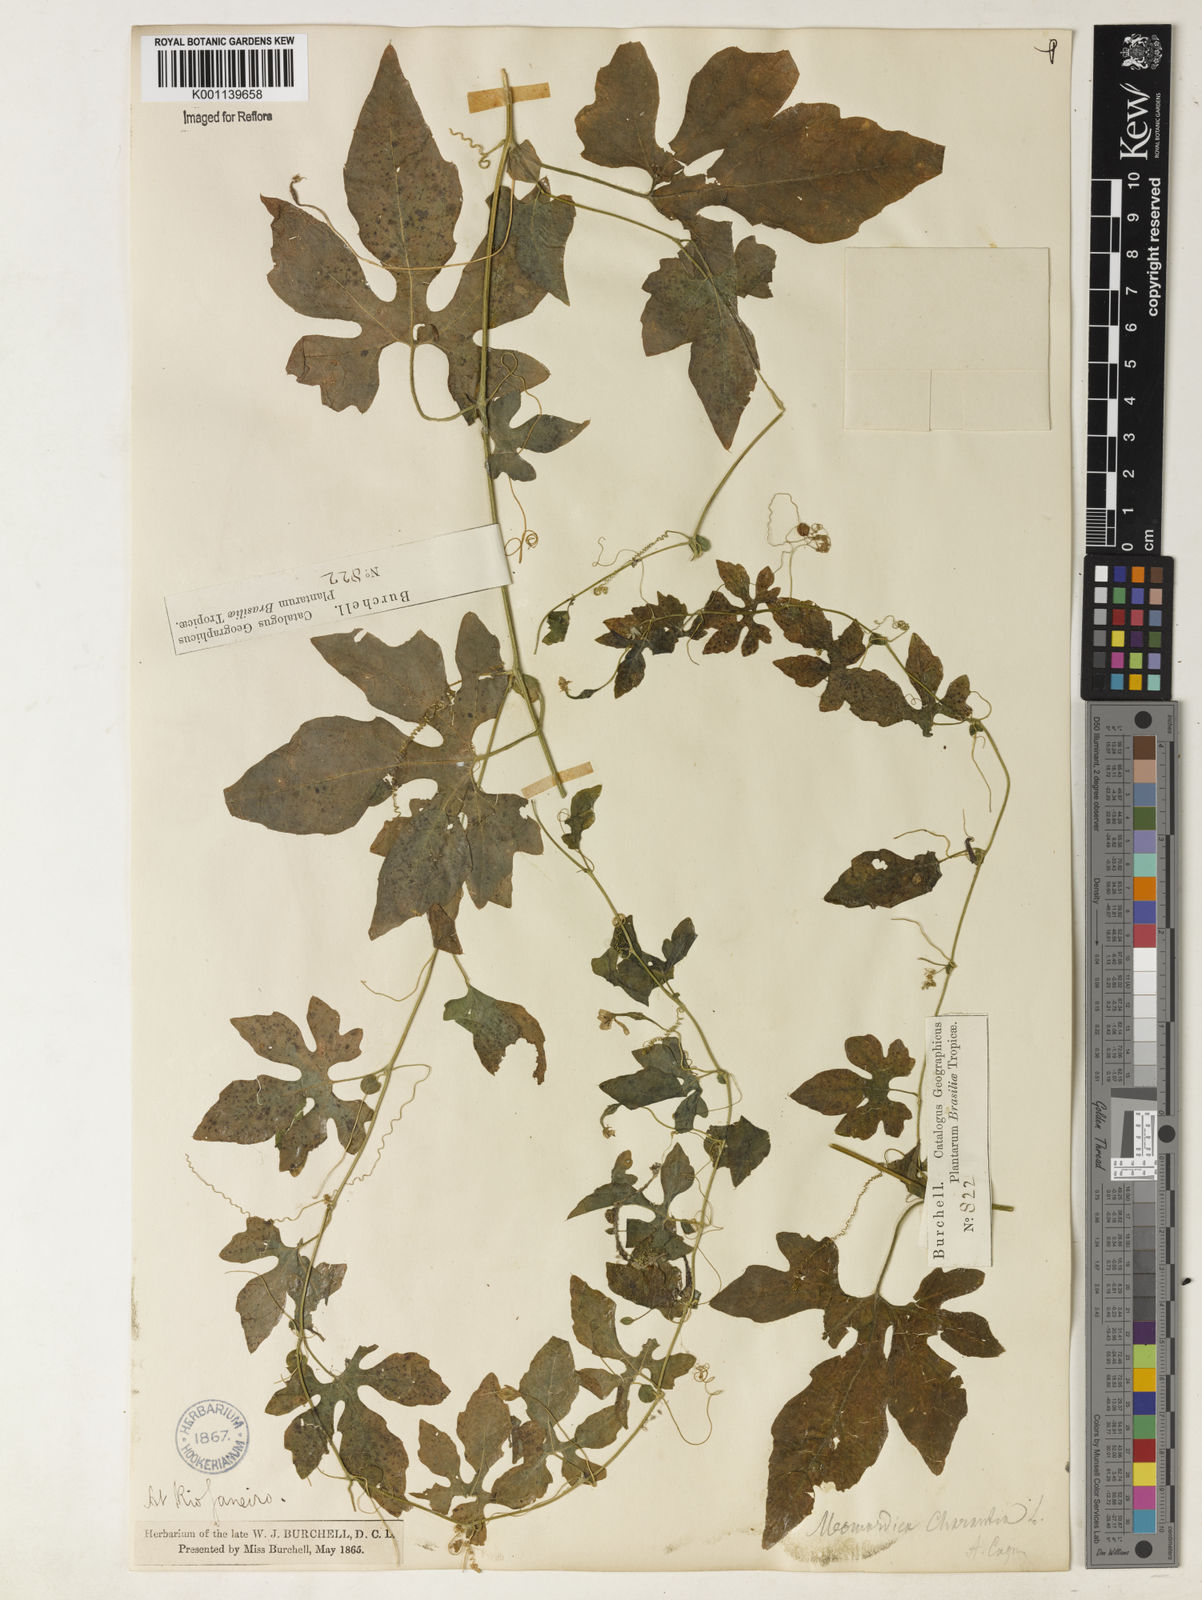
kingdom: Plantae
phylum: Tracheophyta
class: Magnoliopsida
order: Cucurbitales
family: Cucurbitaceae
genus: Momordica
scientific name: Momordica charantia
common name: Balsampear
